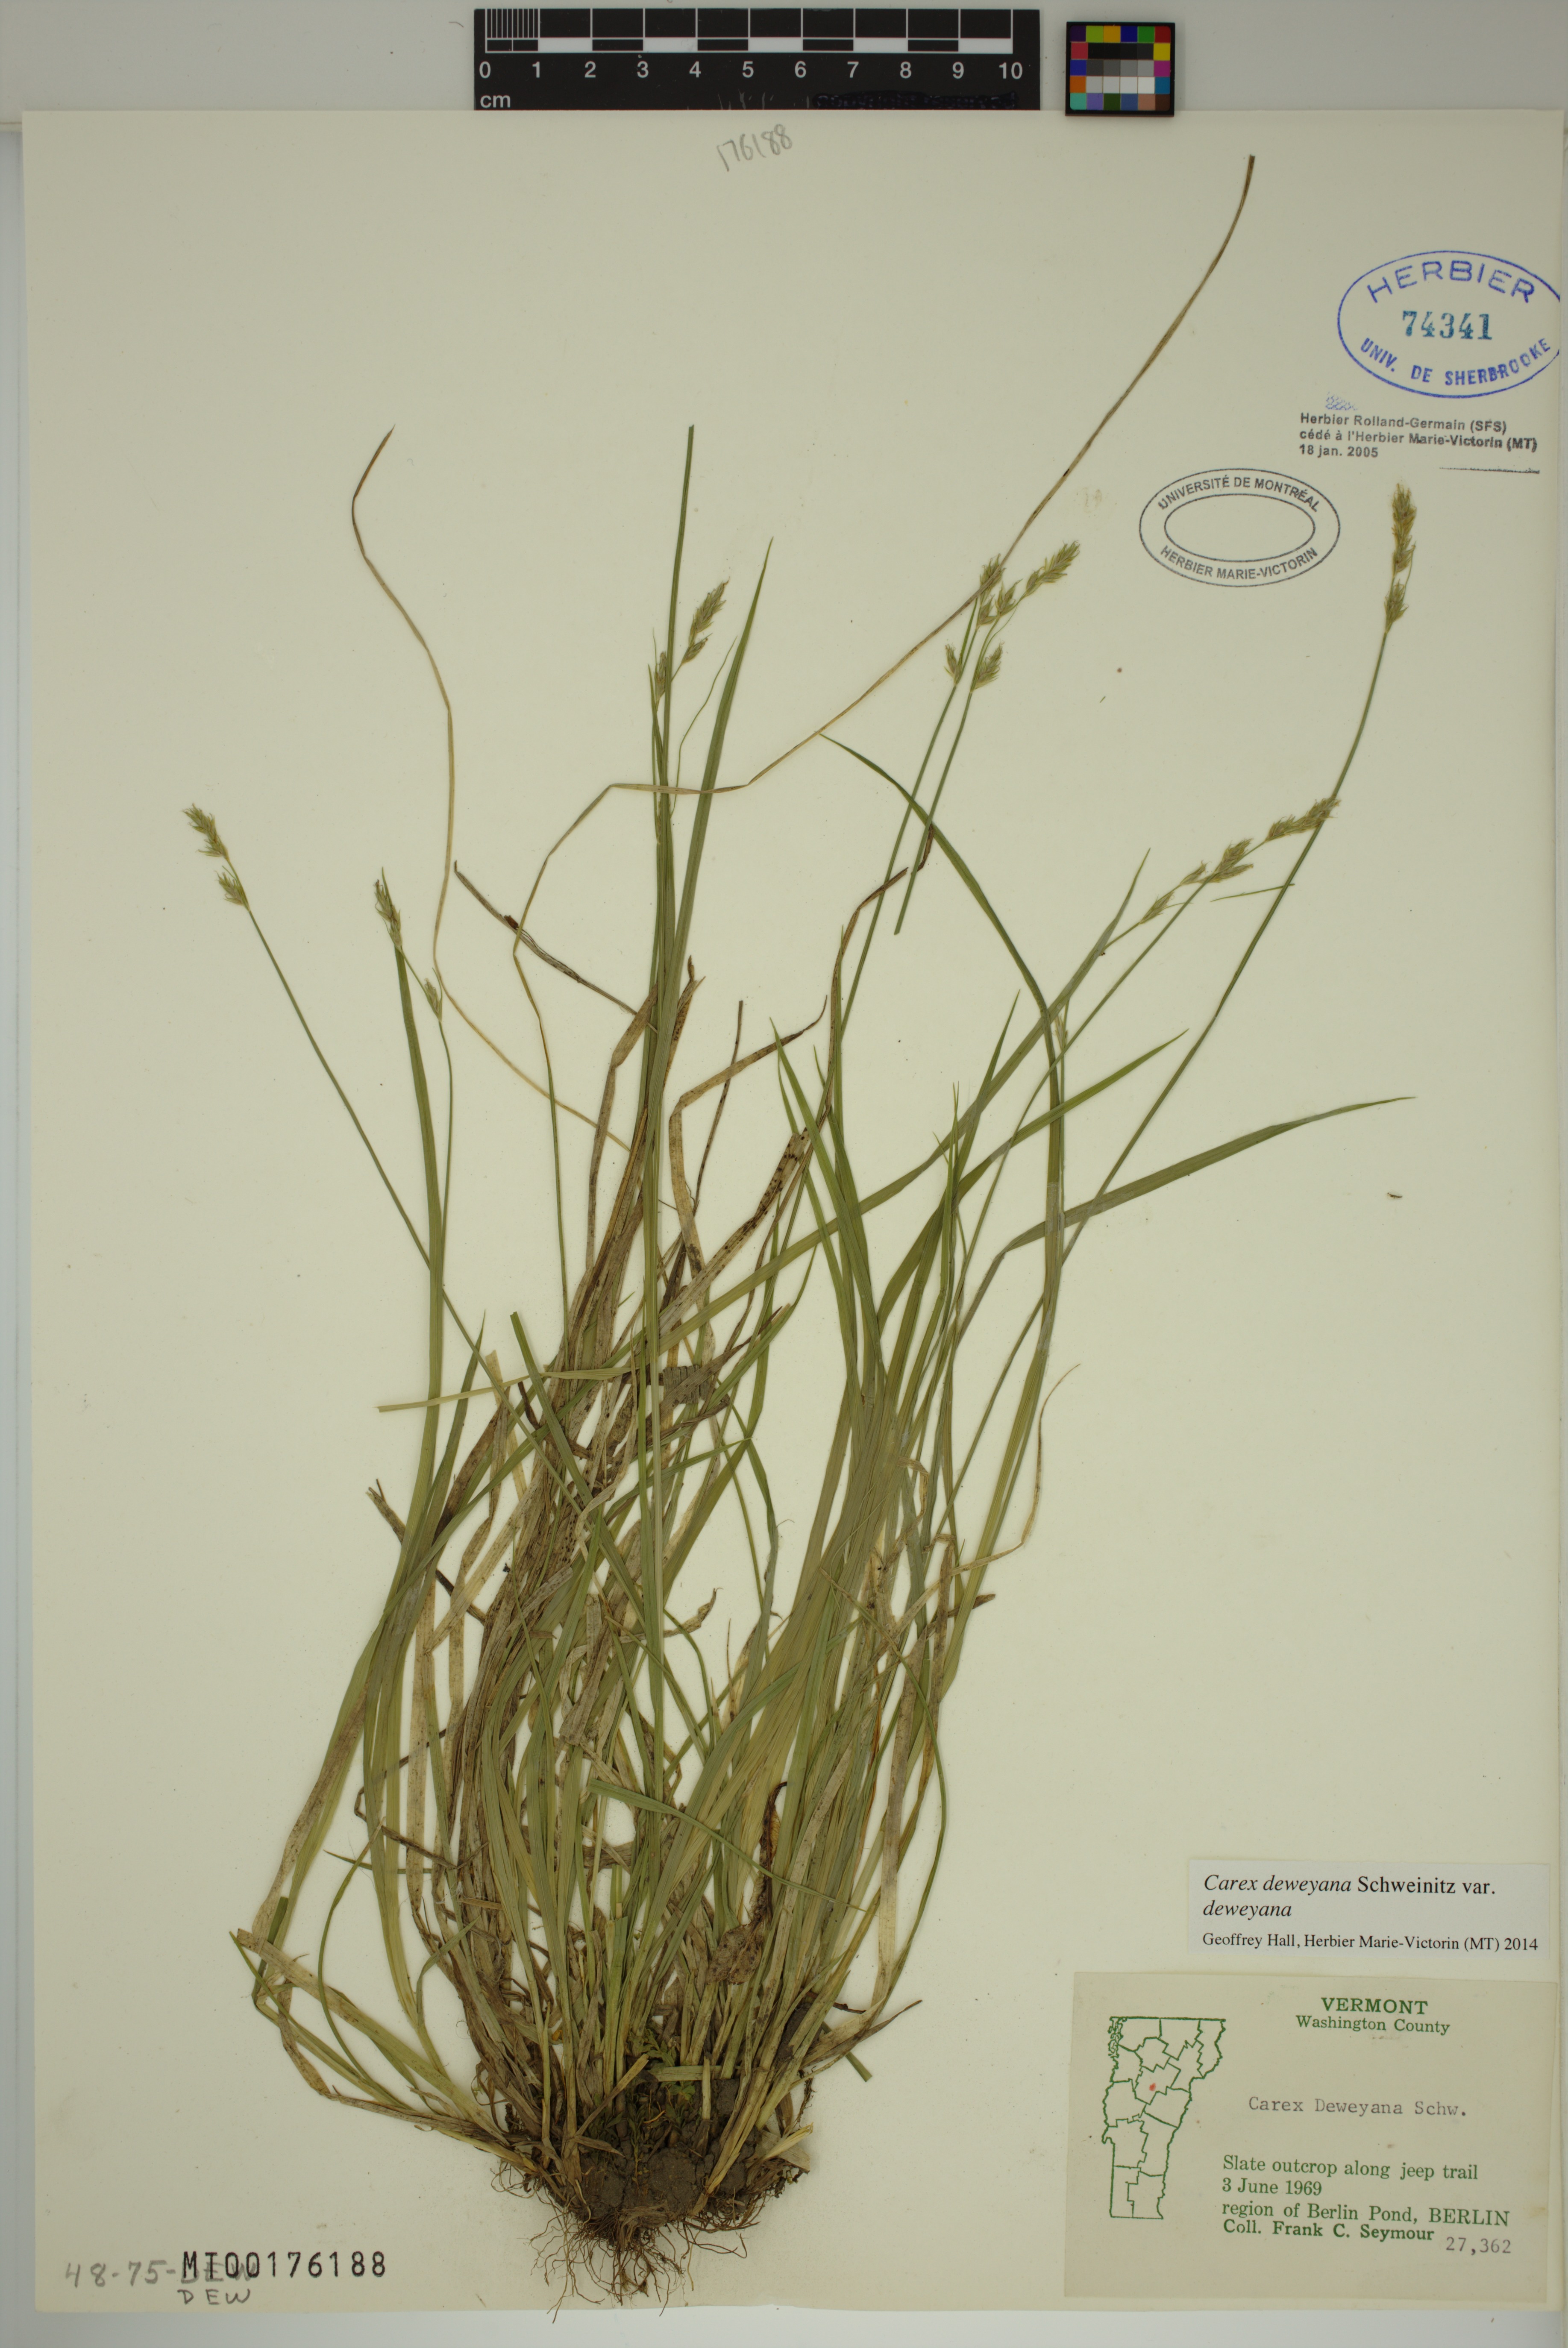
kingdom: Plantae
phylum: Tracheophyta
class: Liliopsida
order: Poales
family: Cyperaceae
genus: Carex
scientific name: Carex deweyana
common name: Dewey's sedge
